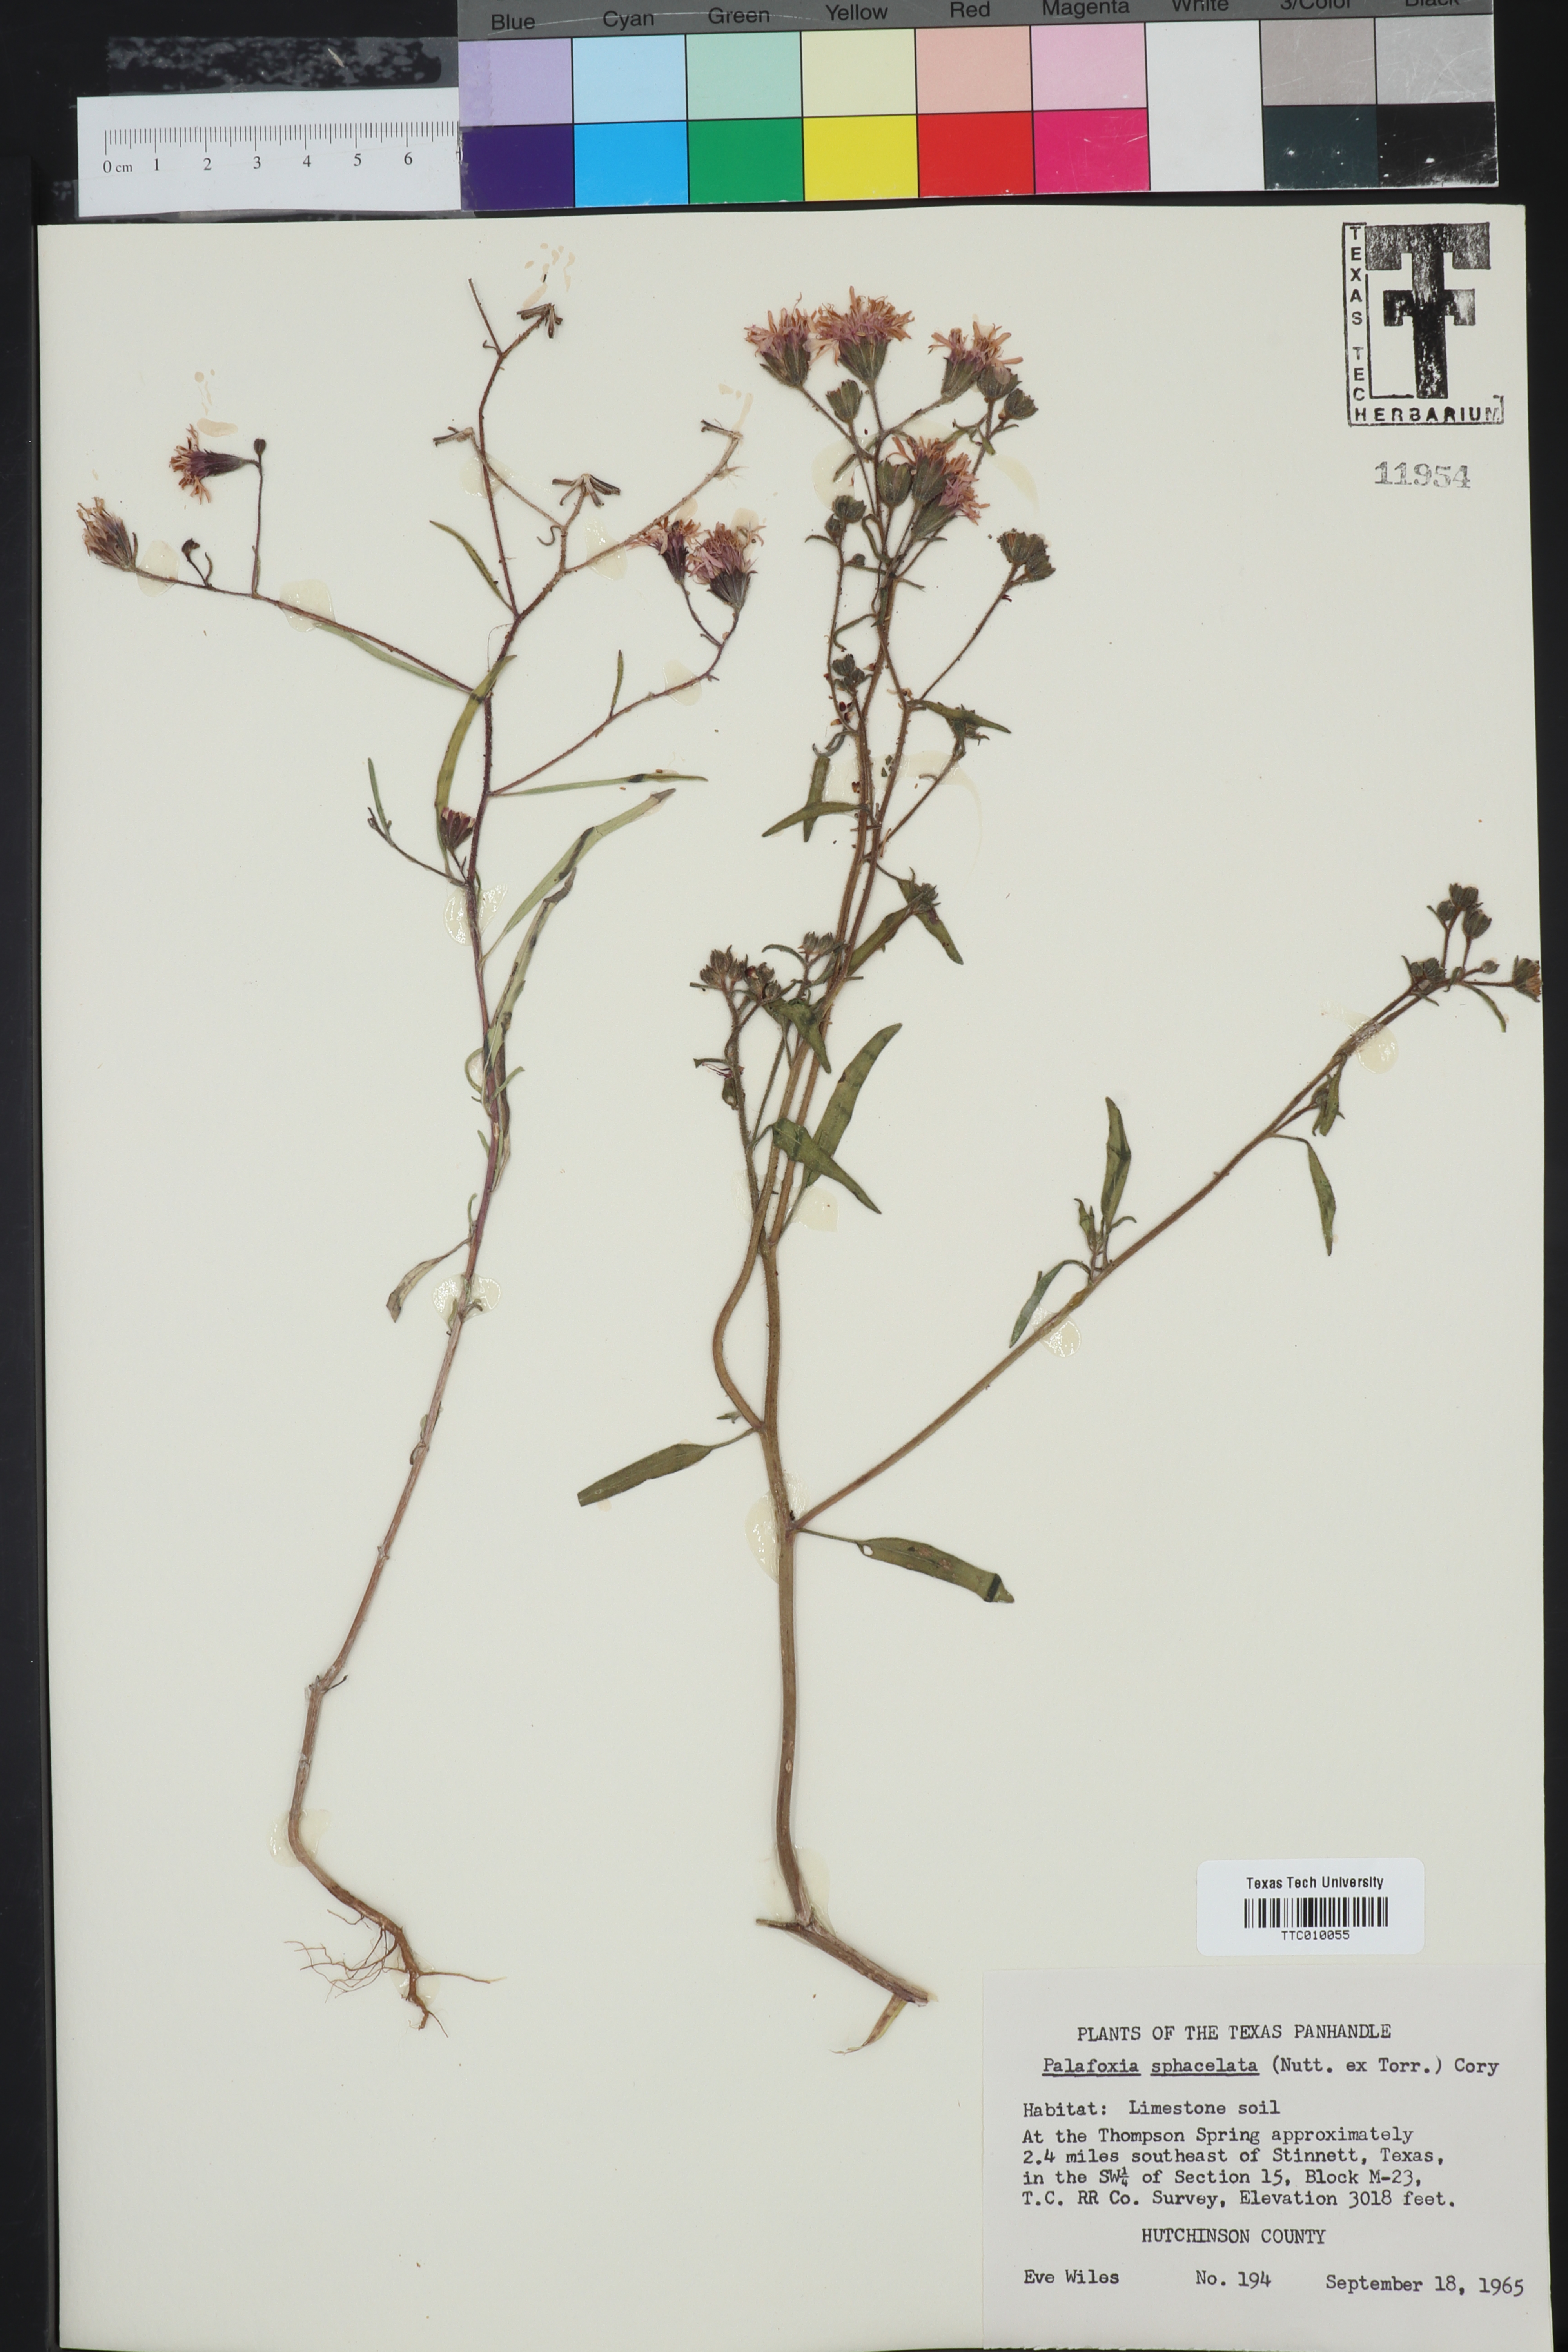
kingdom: Plantae
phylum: Tracheophyta
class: Magnoliopsida
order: Asterales
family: Asteraceae
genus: Palafoxia
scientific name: Palafoxia sphacelata
